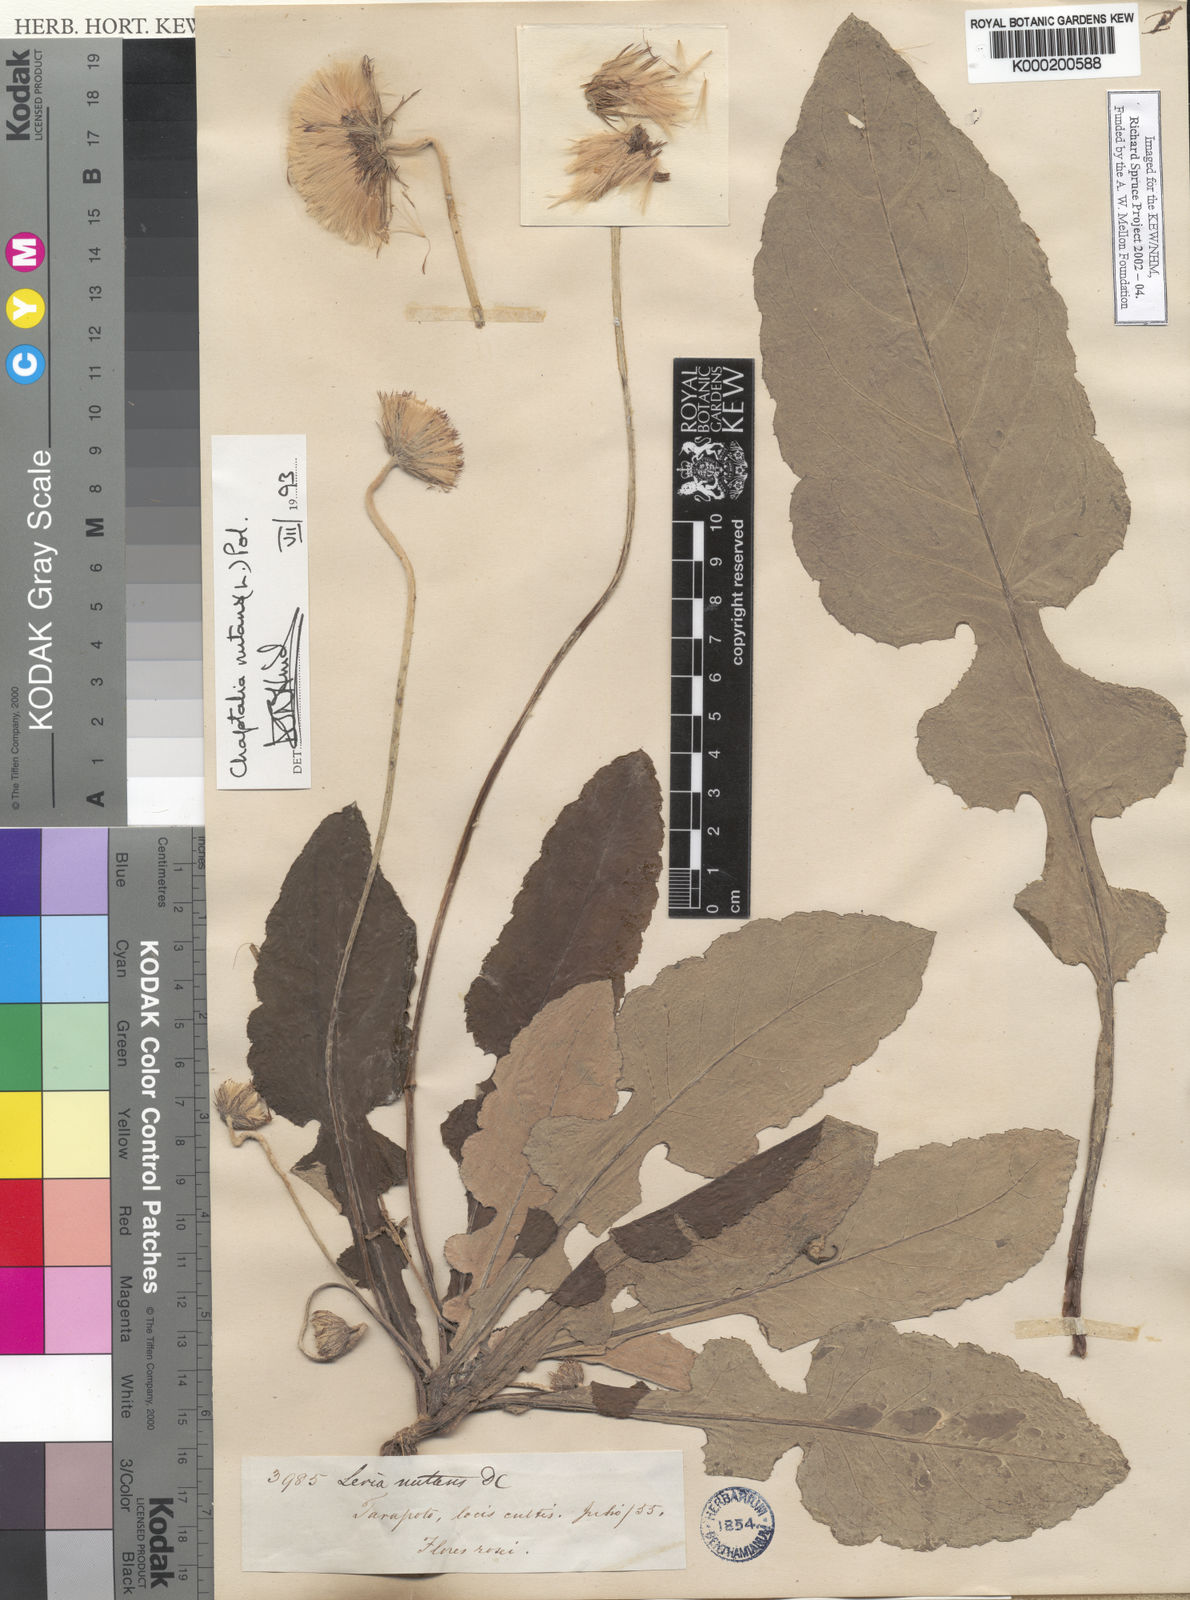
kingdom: Plantae
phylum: Tracheophyta
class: Magnoliopsida
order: Asterales
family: Asteraceae
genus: Chaptalia
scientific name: Chaptalia nutans
